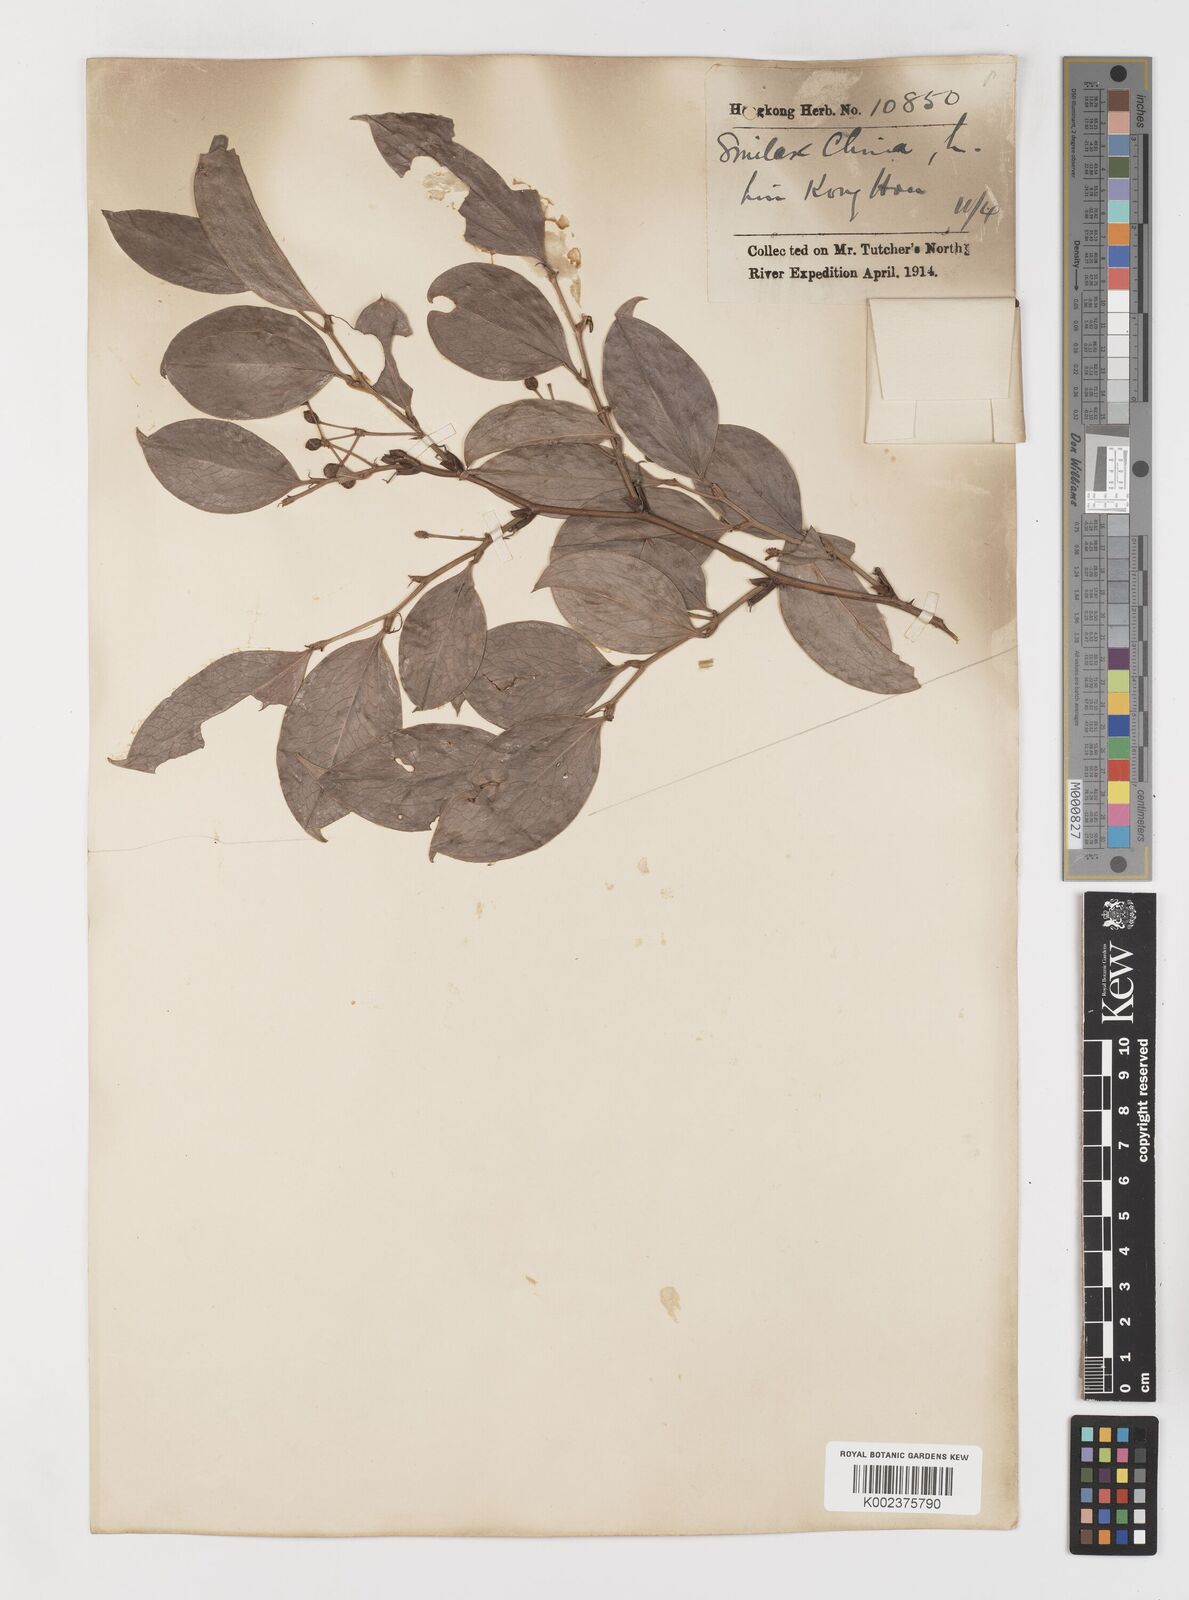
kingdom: Plantae
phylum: Tracheophyta
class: Liliopsida
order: Liliales
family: Smilacaceae
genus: Smilax
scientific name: Smilax china
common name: Chinaroot
